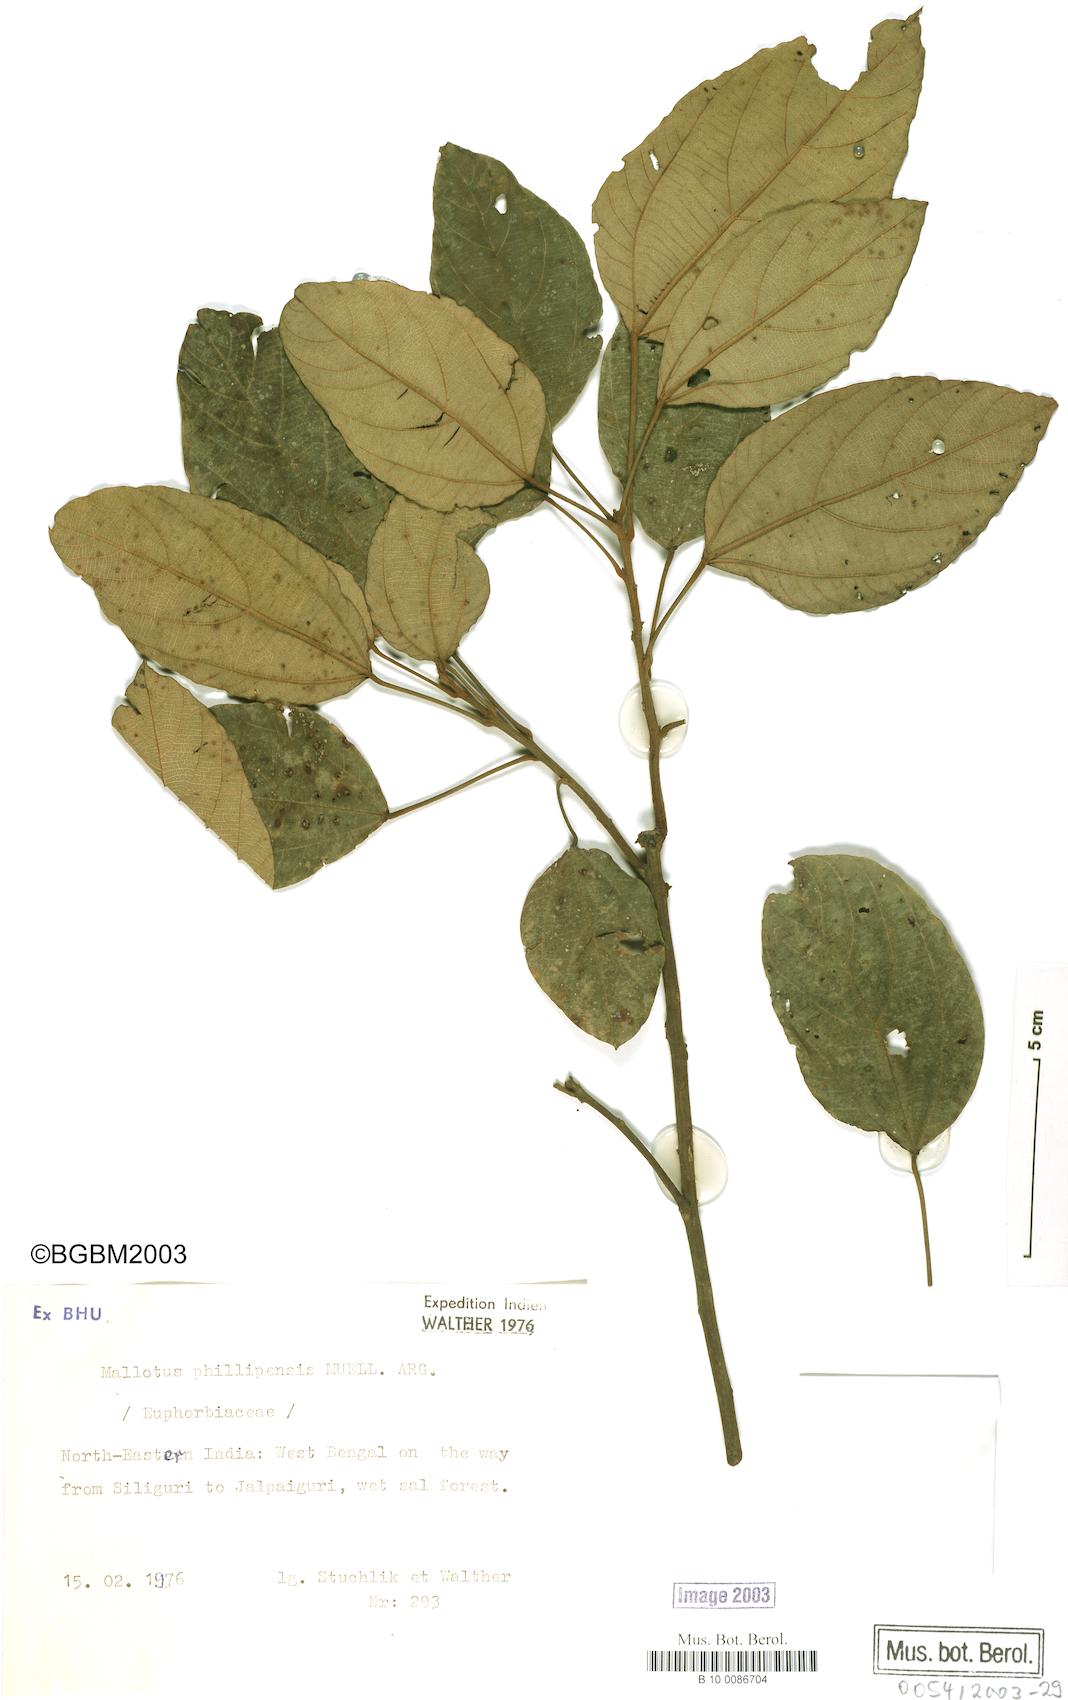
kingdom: Plantae
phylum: Tracheophyta
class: Magnoliopsida
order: Malpighiales
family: Euphorbiaceae
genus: Mallotus
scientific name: Mallotus philippensis
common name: Kamala tree
